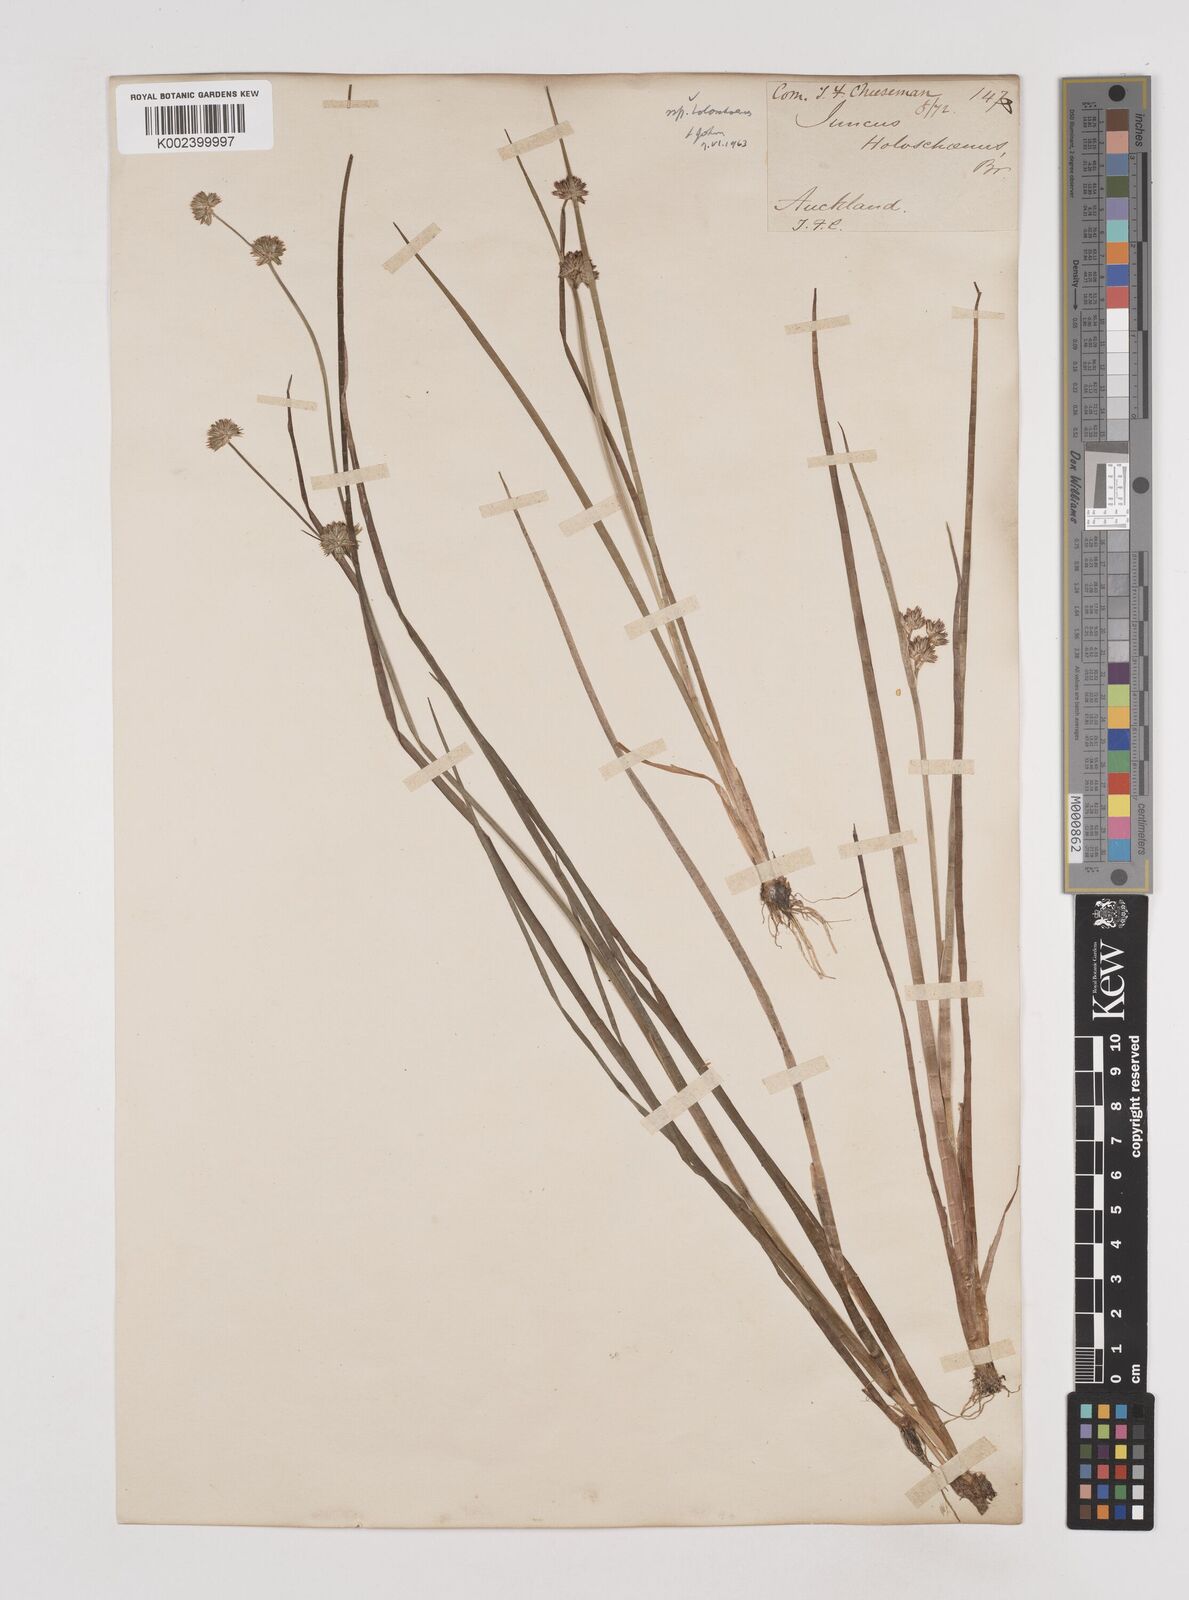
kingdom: Plantae
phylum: Tracheophyta
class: Liliopsida
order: Poales
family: Juncaceae
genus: Juncus
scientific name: Juncus holoschoenus
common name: Joint-leaf rush
